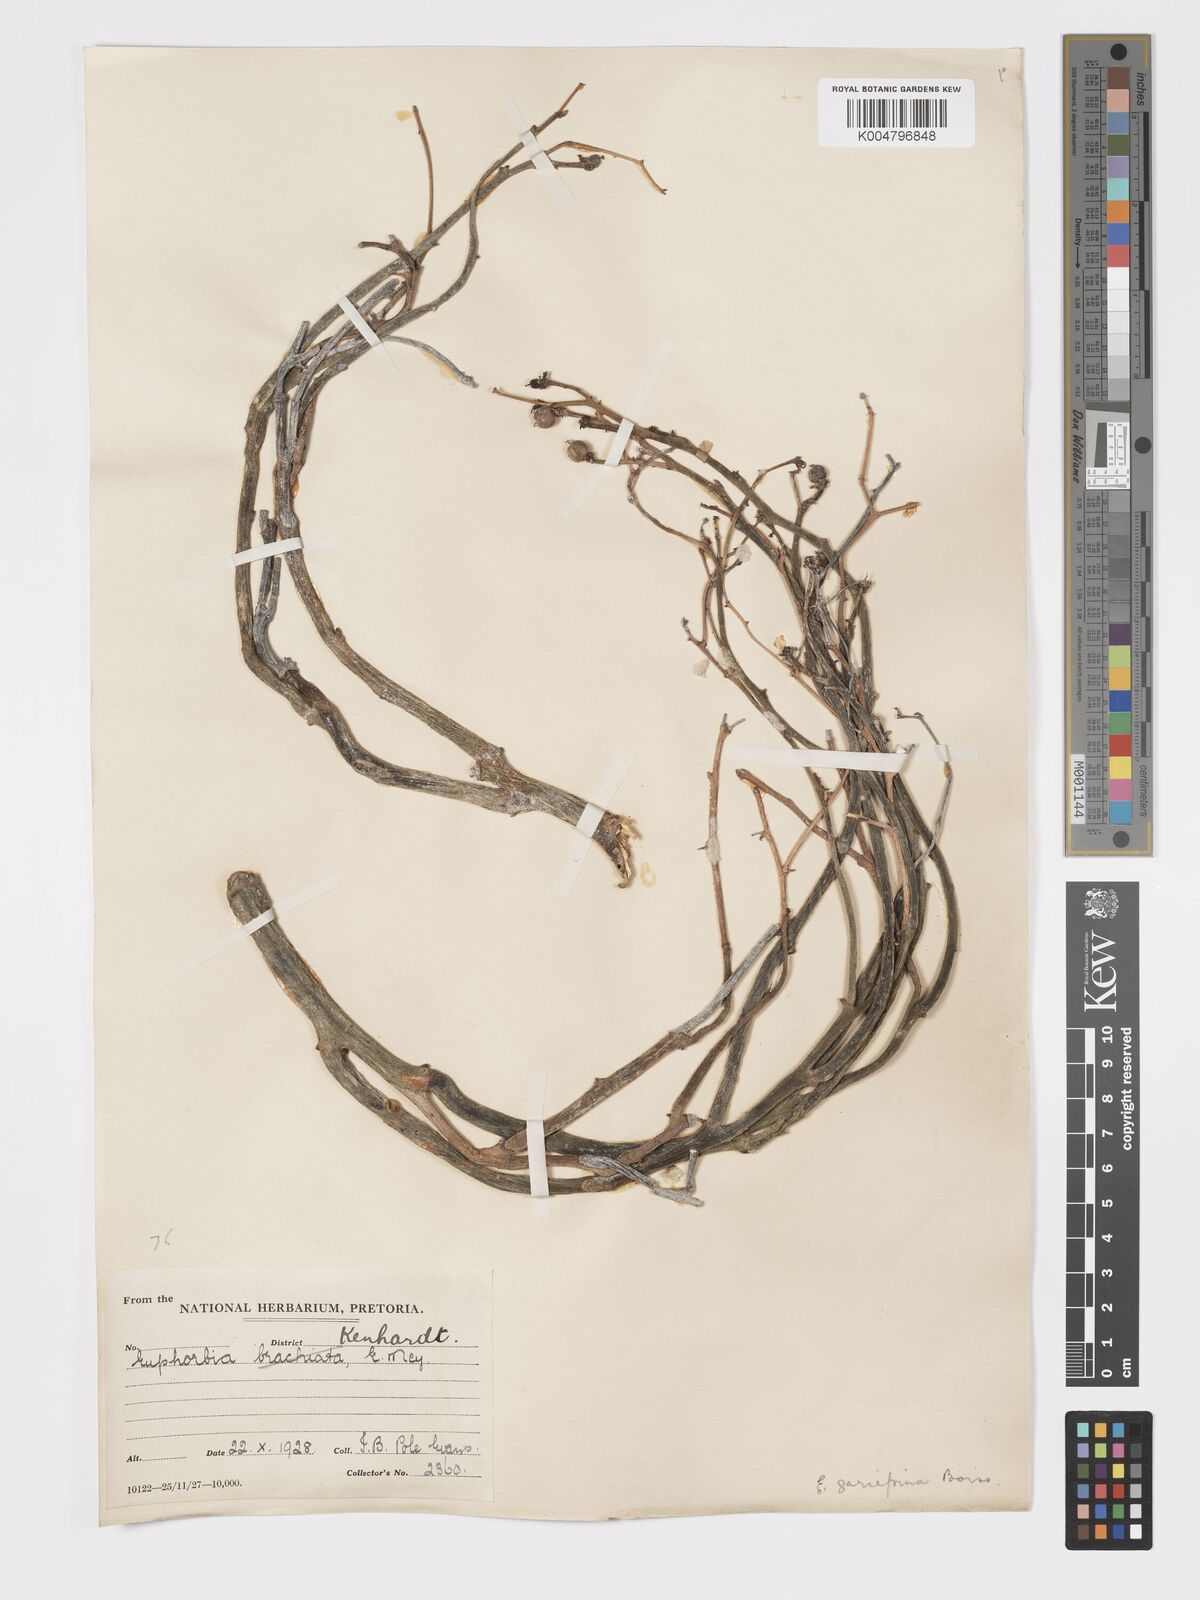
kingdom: Plantae
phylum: Tracheophyta
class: Magnoliopsida
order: Malpighiales
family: Euphorbiaceae
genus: Euphorbia
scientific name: Euphorbia gariepina
